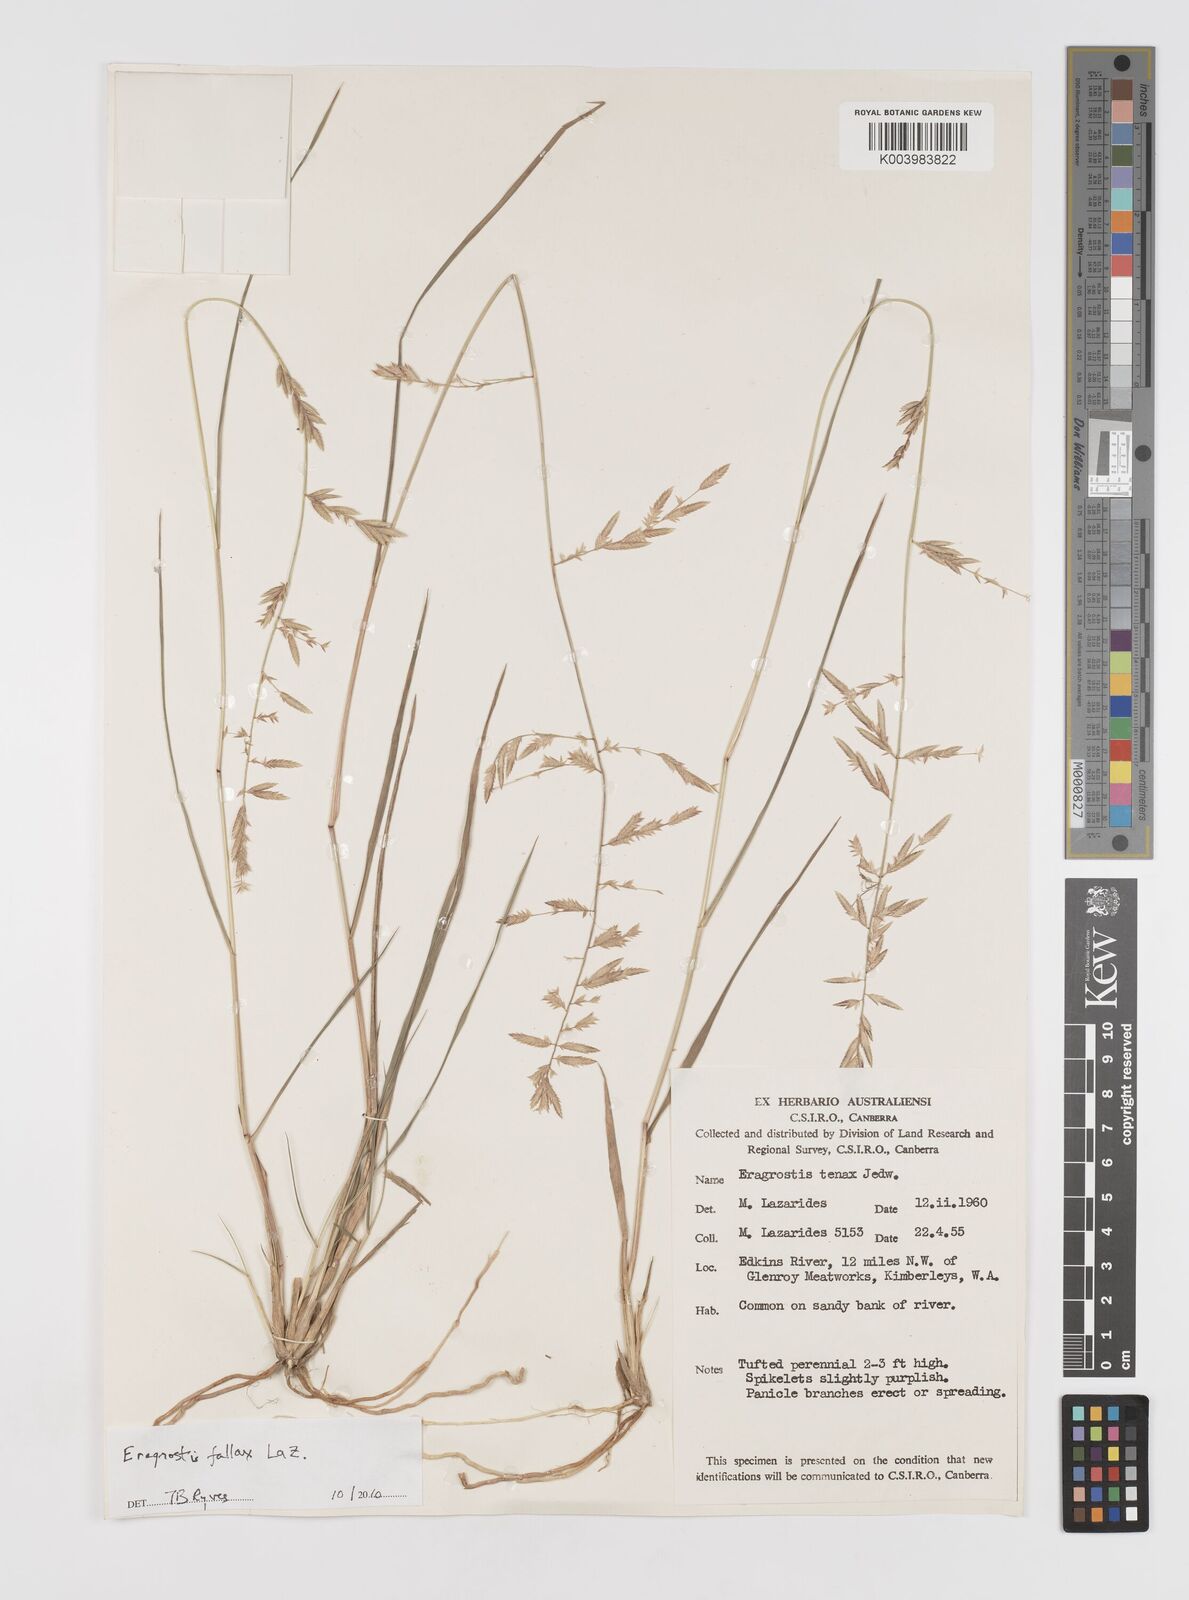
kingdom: Plantae
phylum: Tracheophyta
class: Liliopsida
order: Poales
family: Poaceae
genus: Eragrostis
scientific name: Eragrostis fallax
